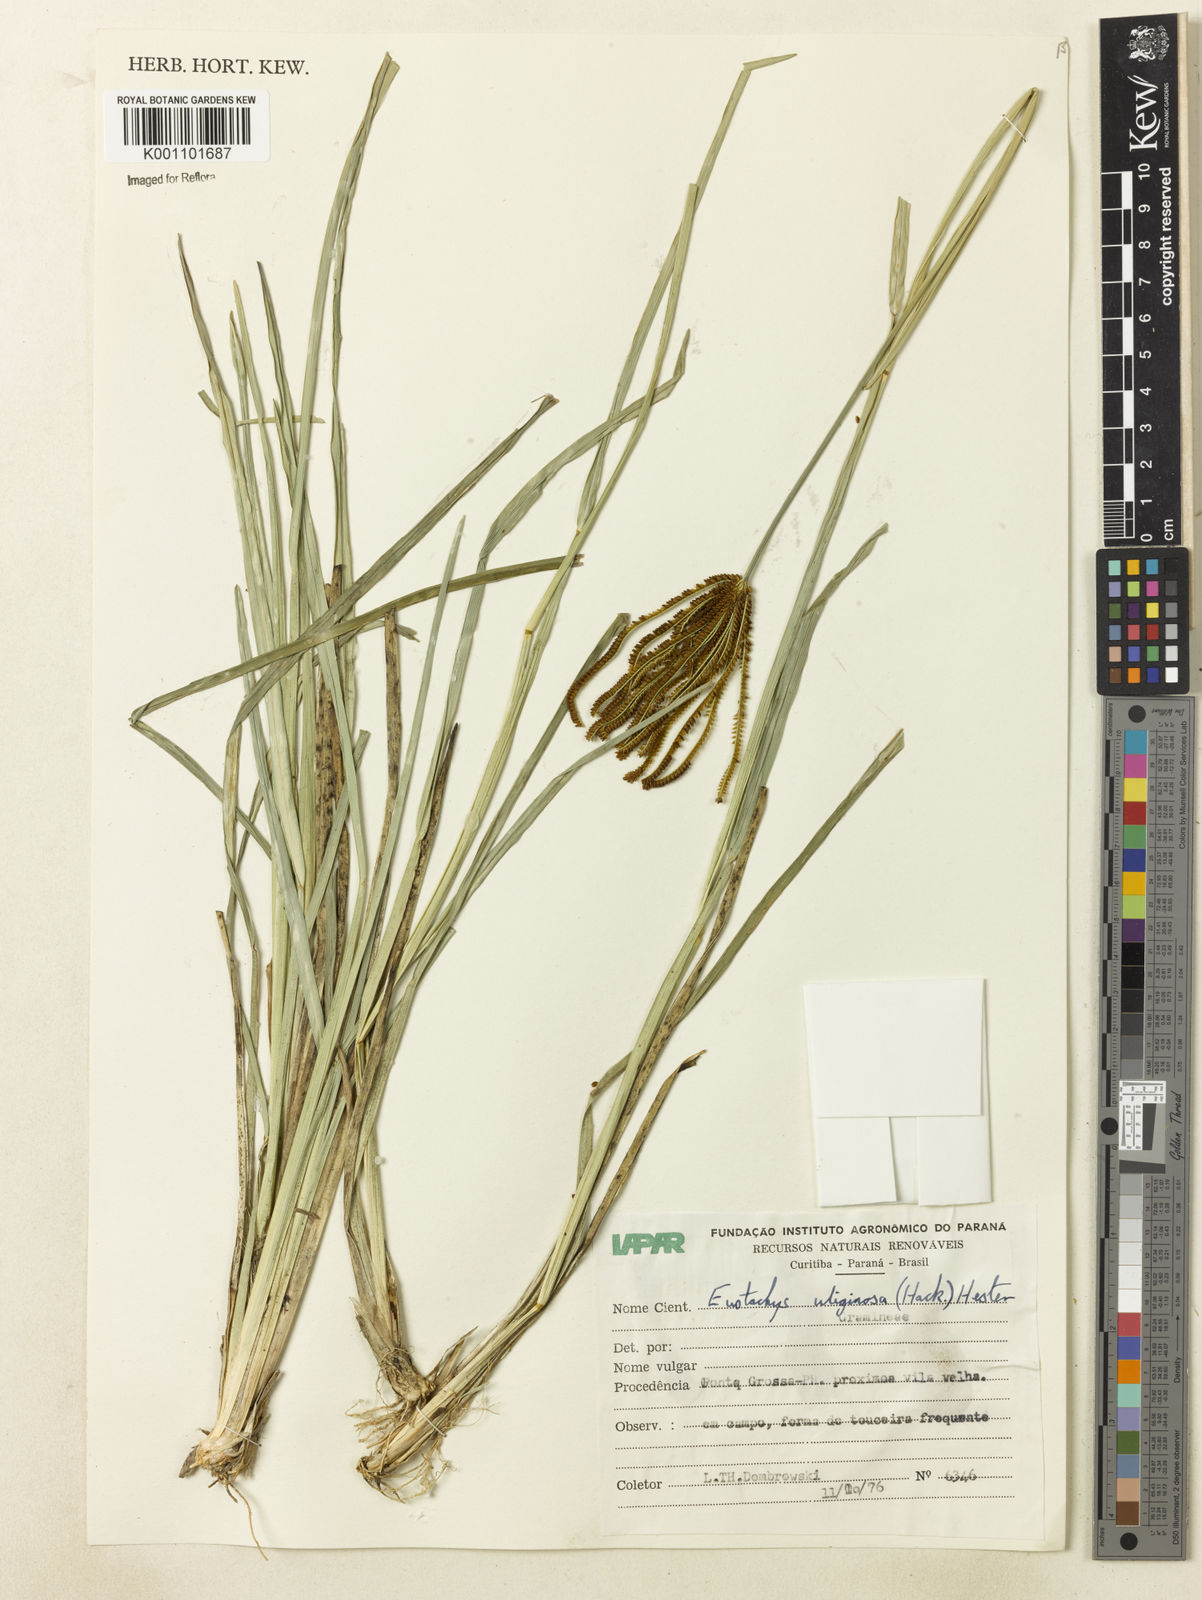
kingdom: Plantae
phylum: Tracheophyta
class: Liliopsida
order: Poales
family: Poaceae
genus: Eustachys
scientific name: Eustachys uliginosa
